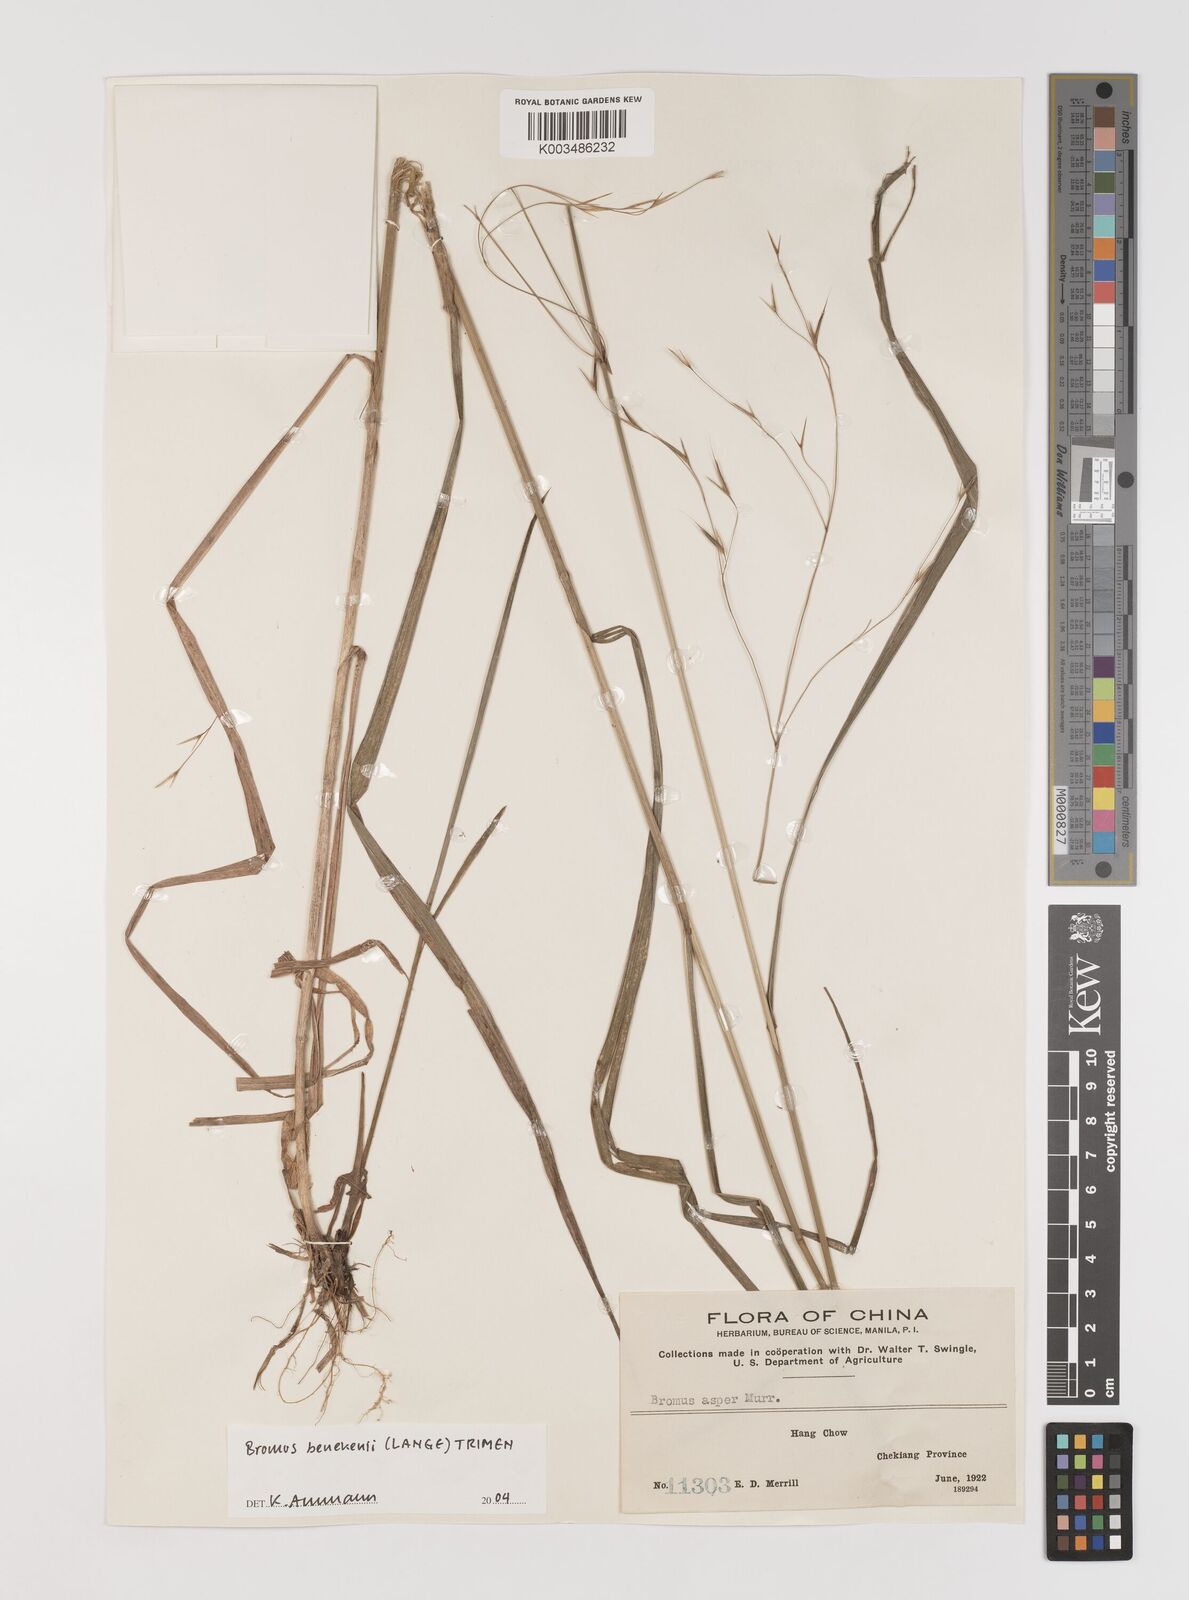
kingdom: Plantae
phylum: Tracheophyta
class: Liliopsida
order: Poales
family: Poaceae
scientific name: Poaceae
